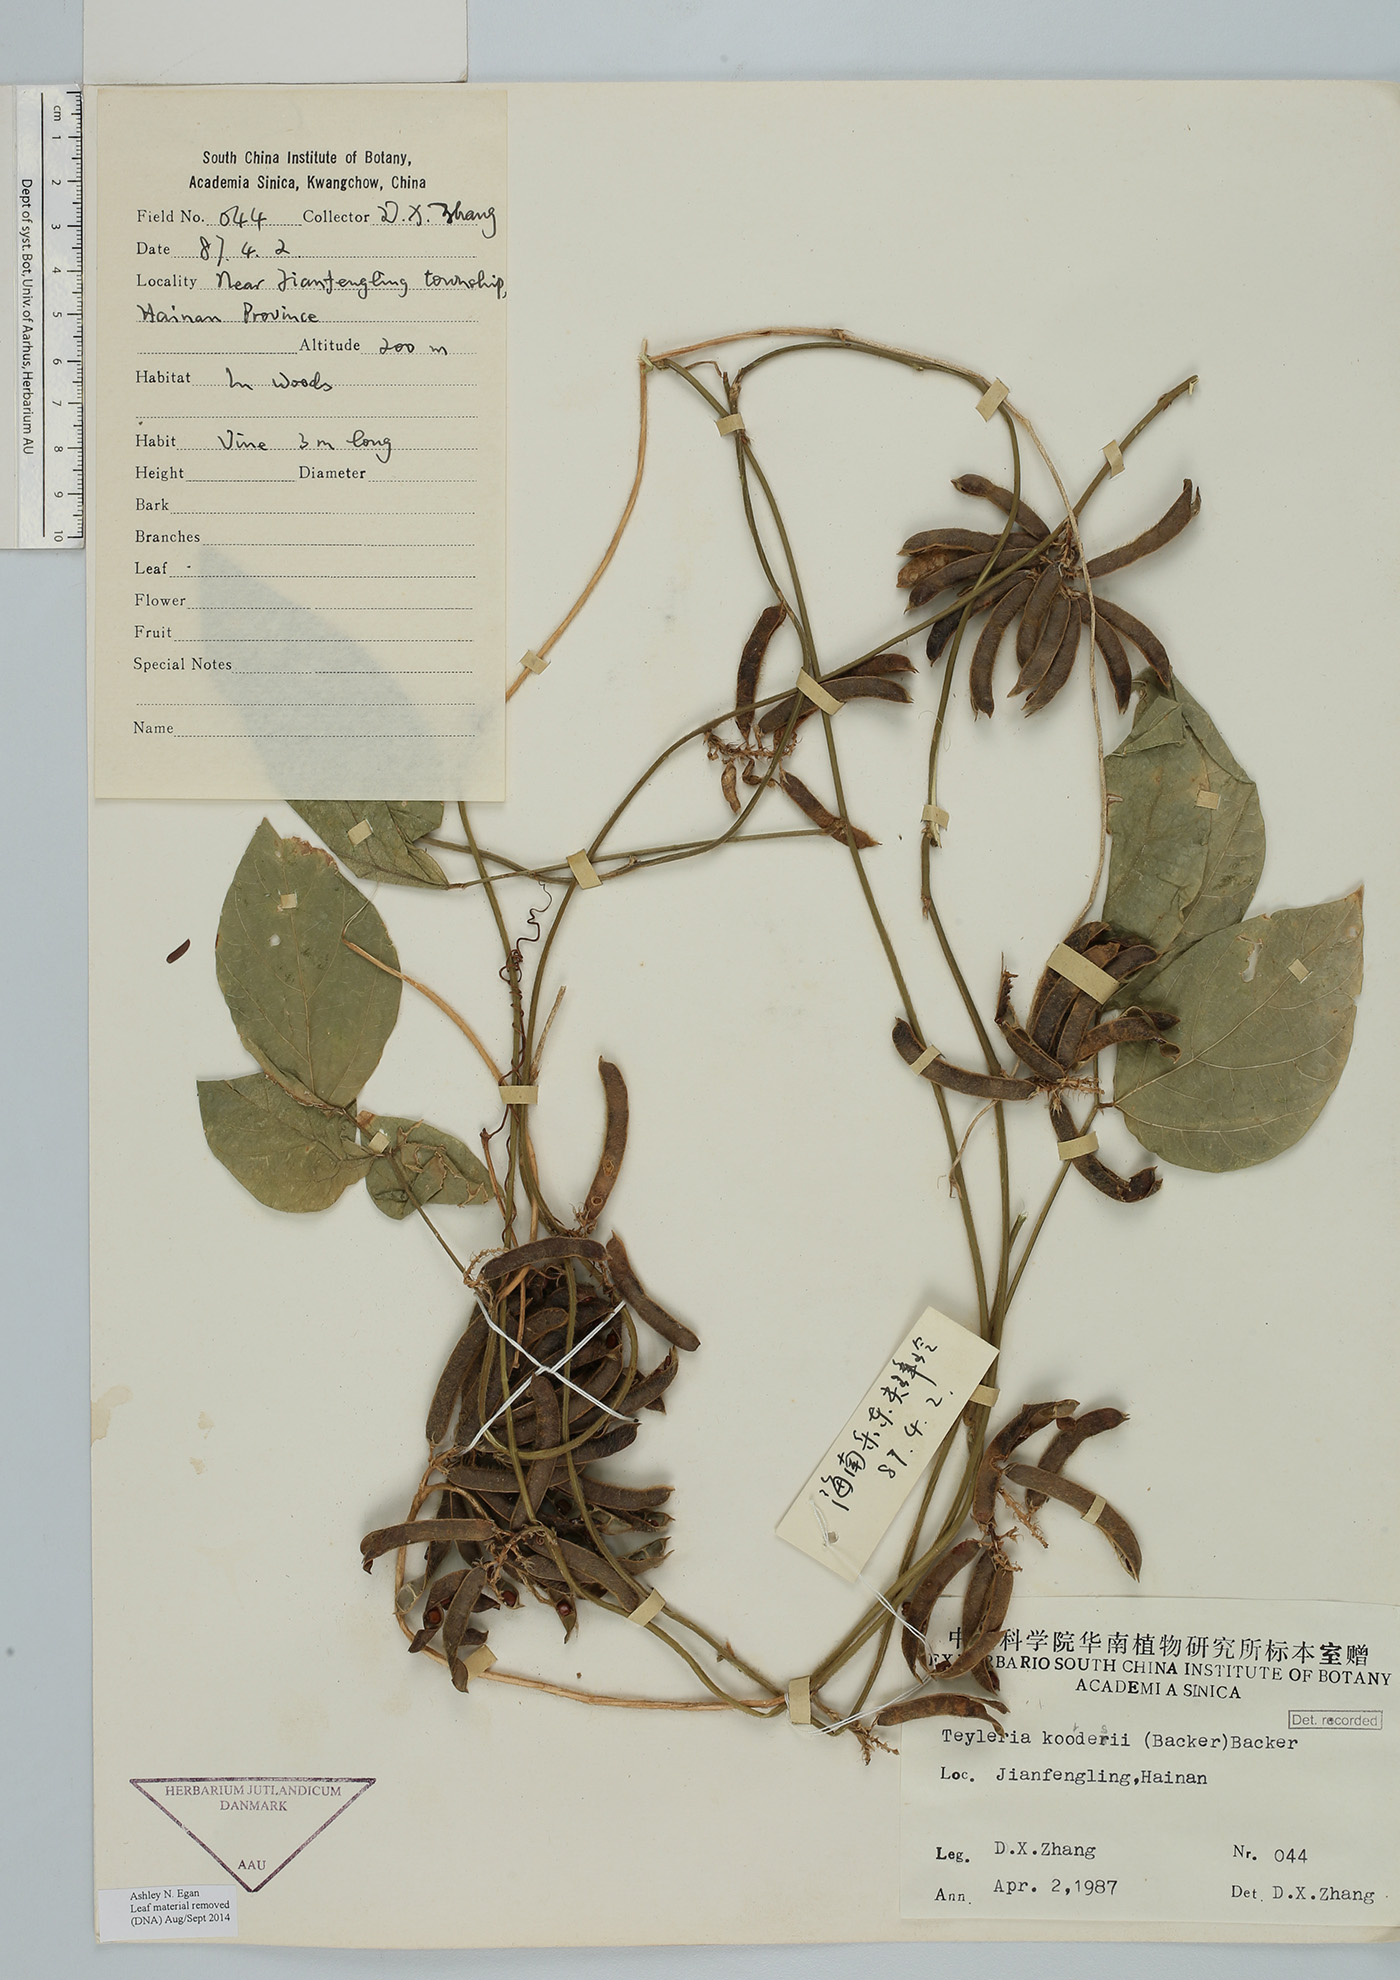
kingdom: Plantae
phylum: Tracheophyta
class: Magnoliopsida
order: Fabales
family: Fabaceae
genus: Teyleria
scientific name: Teyleria tetragona
